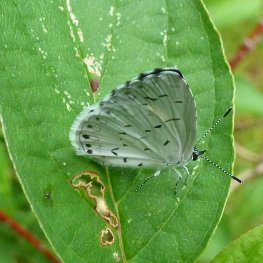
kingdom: Animalia
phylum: Arthropoda
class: Insecta
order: Lepidoptera
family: Lycaenidae
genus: Cyaniris
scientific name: Cyaniris neglecta
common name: Summer Azure
